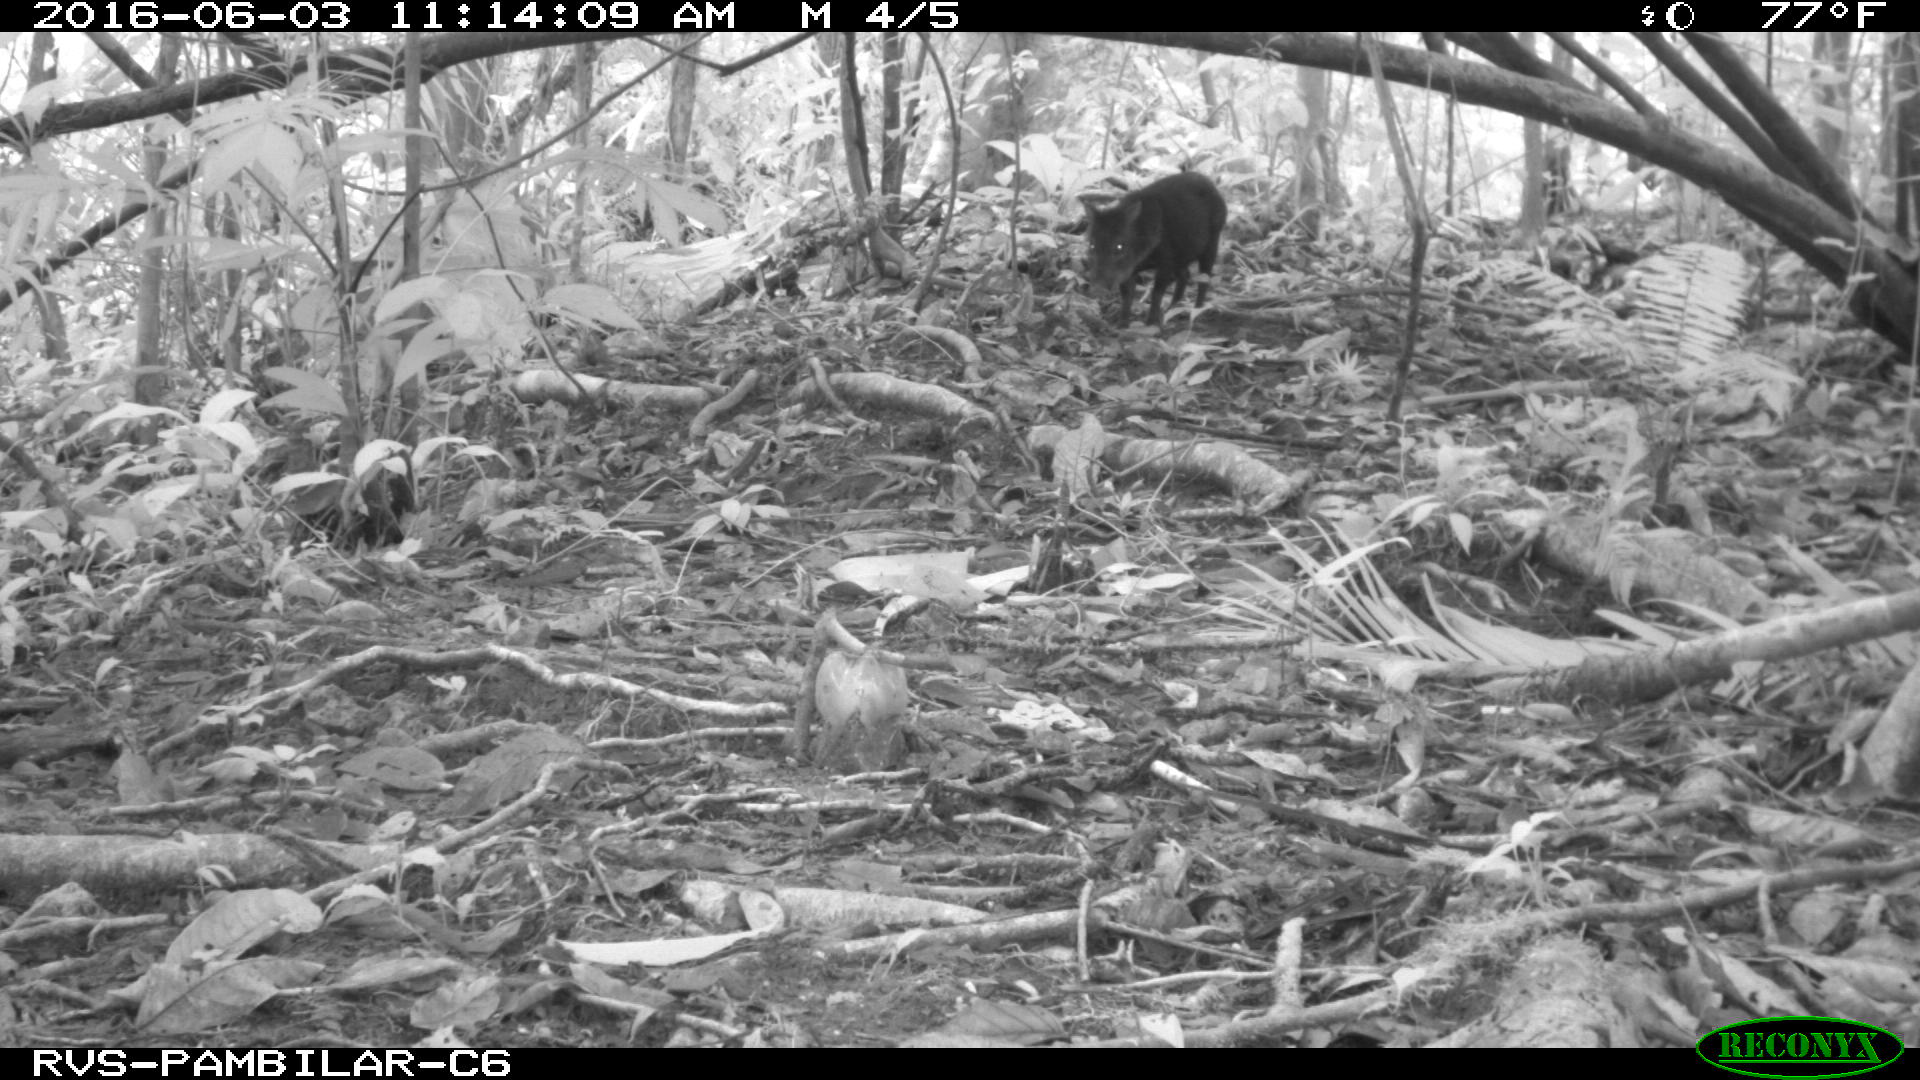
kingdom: Animalia
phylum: Chordata
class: Mammalia
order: Artiodactyla
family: Tayassuidae
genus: Tayassu
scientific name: Tayassu pecari
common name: White-lipped peccary
